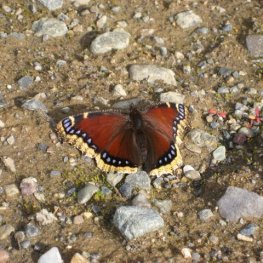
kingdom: Animalia
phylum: Arthropoda
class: Insecta
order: Lepidoptera
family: Nymphalidae
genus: Nymphalis
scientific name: Nymphalis antiopa
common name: Mourning Cloak
